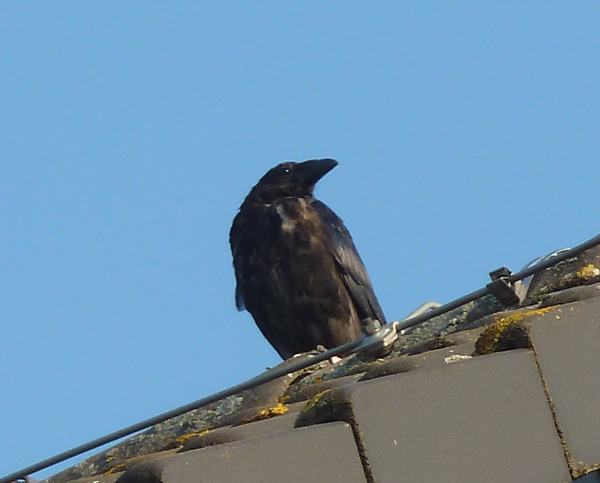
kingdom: Animalia
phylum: Chordata
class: Aves
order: Passeriformes
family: Corvidae
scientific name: Corvidae
